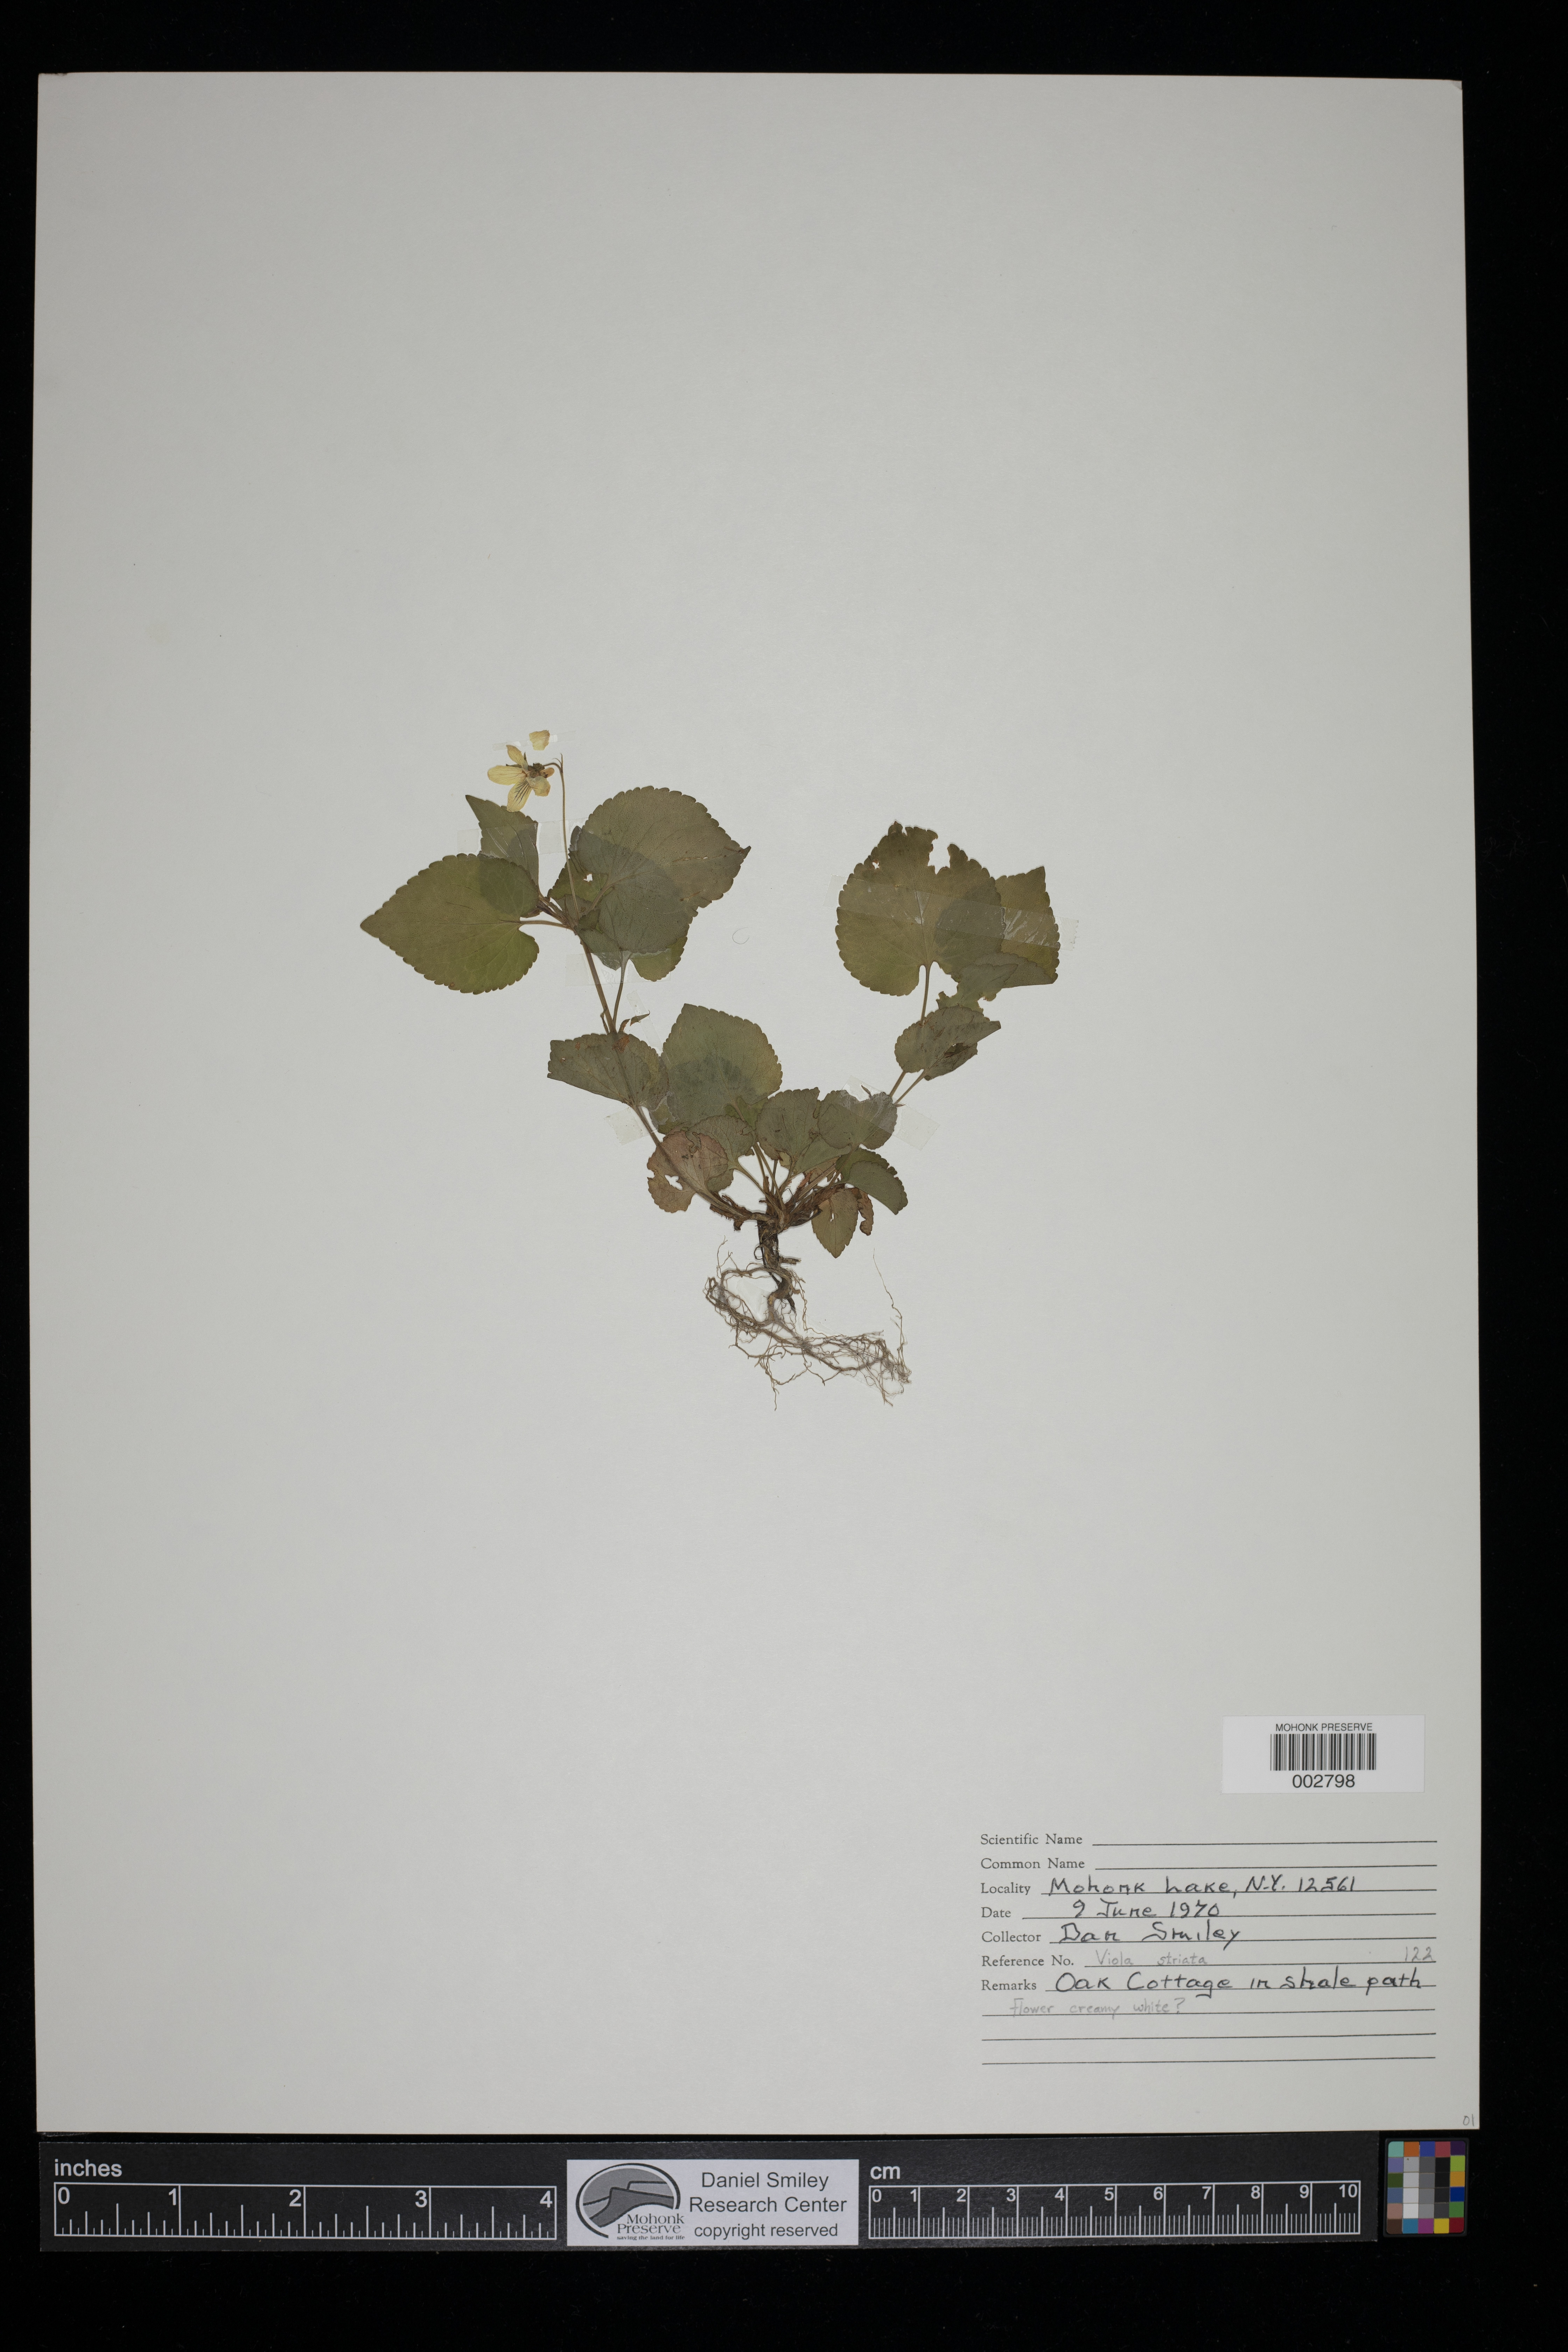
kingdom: Plantae
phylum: Tracheophyta
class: Magnoliopsida
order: Malpighiales
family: Violaceae
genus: Viola
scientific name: Viola striata
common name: Cream violet
